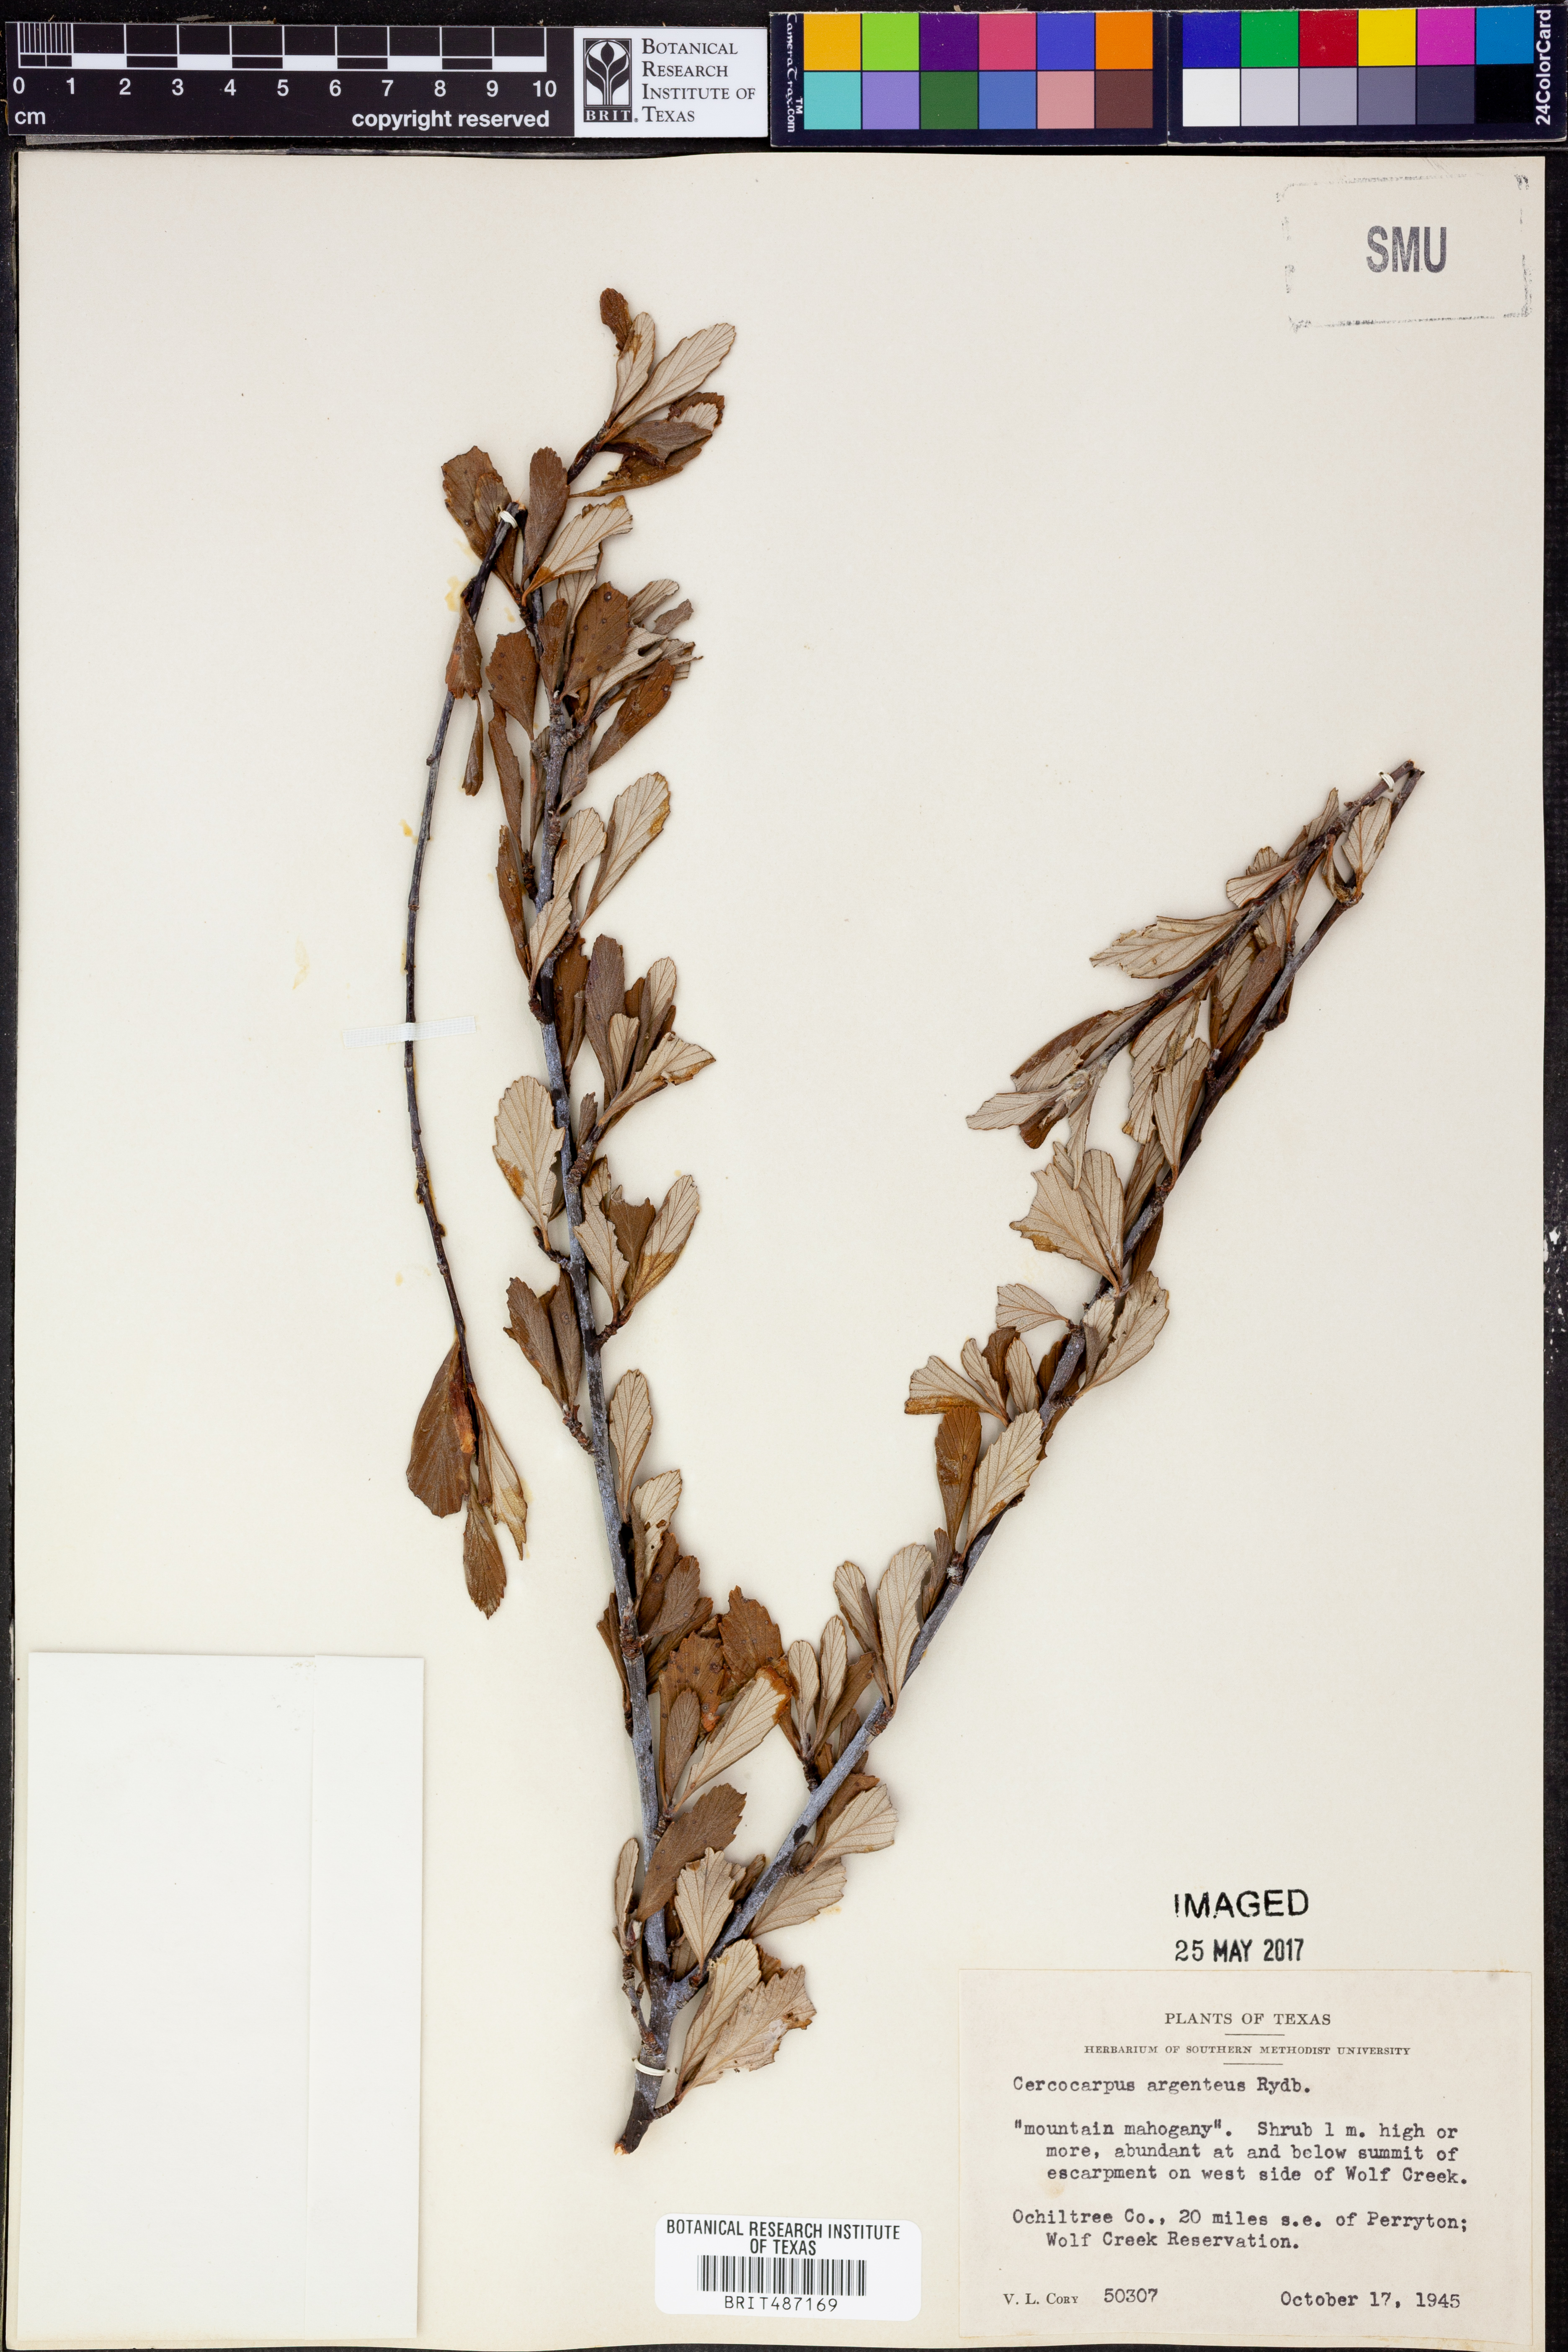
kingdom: Plantae
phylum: Tracheophyta
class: Magnoliopsida
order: Rosales
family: Rosaceae
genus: Cercocarpus
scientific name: Cercocarpus intricatus
